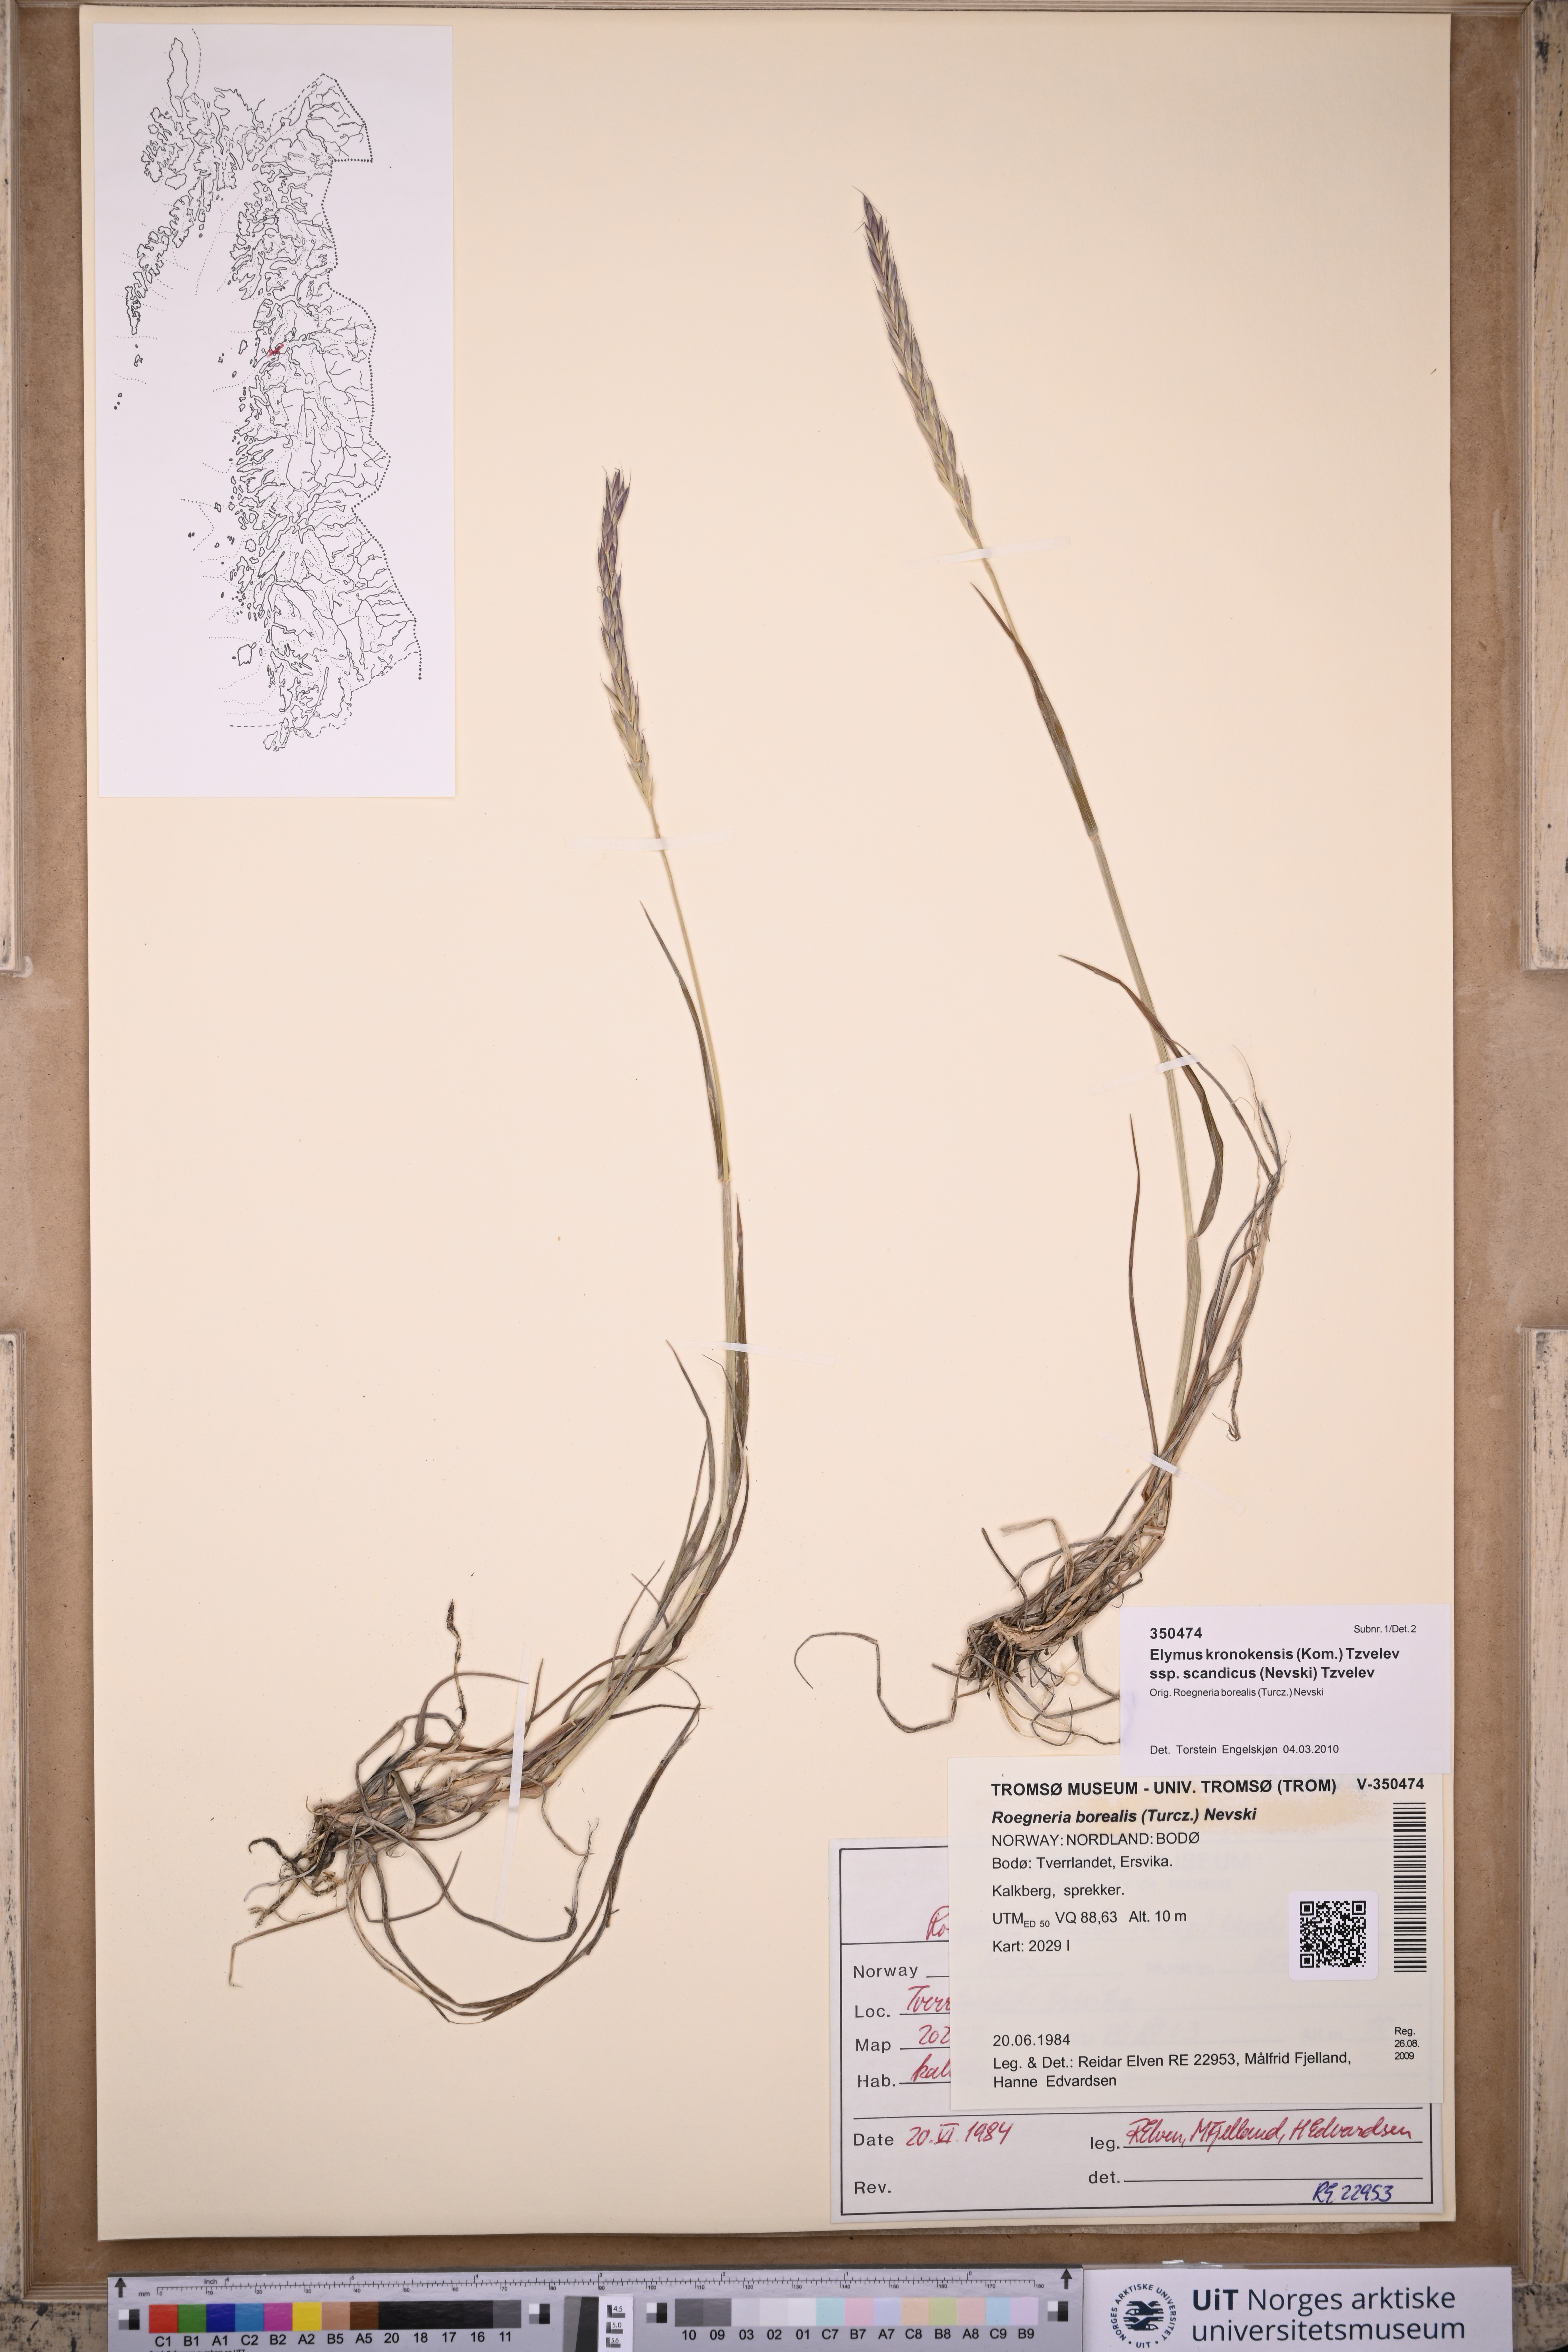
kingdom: Plantae
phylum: Tracheophyta
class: Liliopsida
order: Poales
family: Poaceae
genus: Elymus
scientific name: Elymus macrourus
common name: Northern wheatgrass
